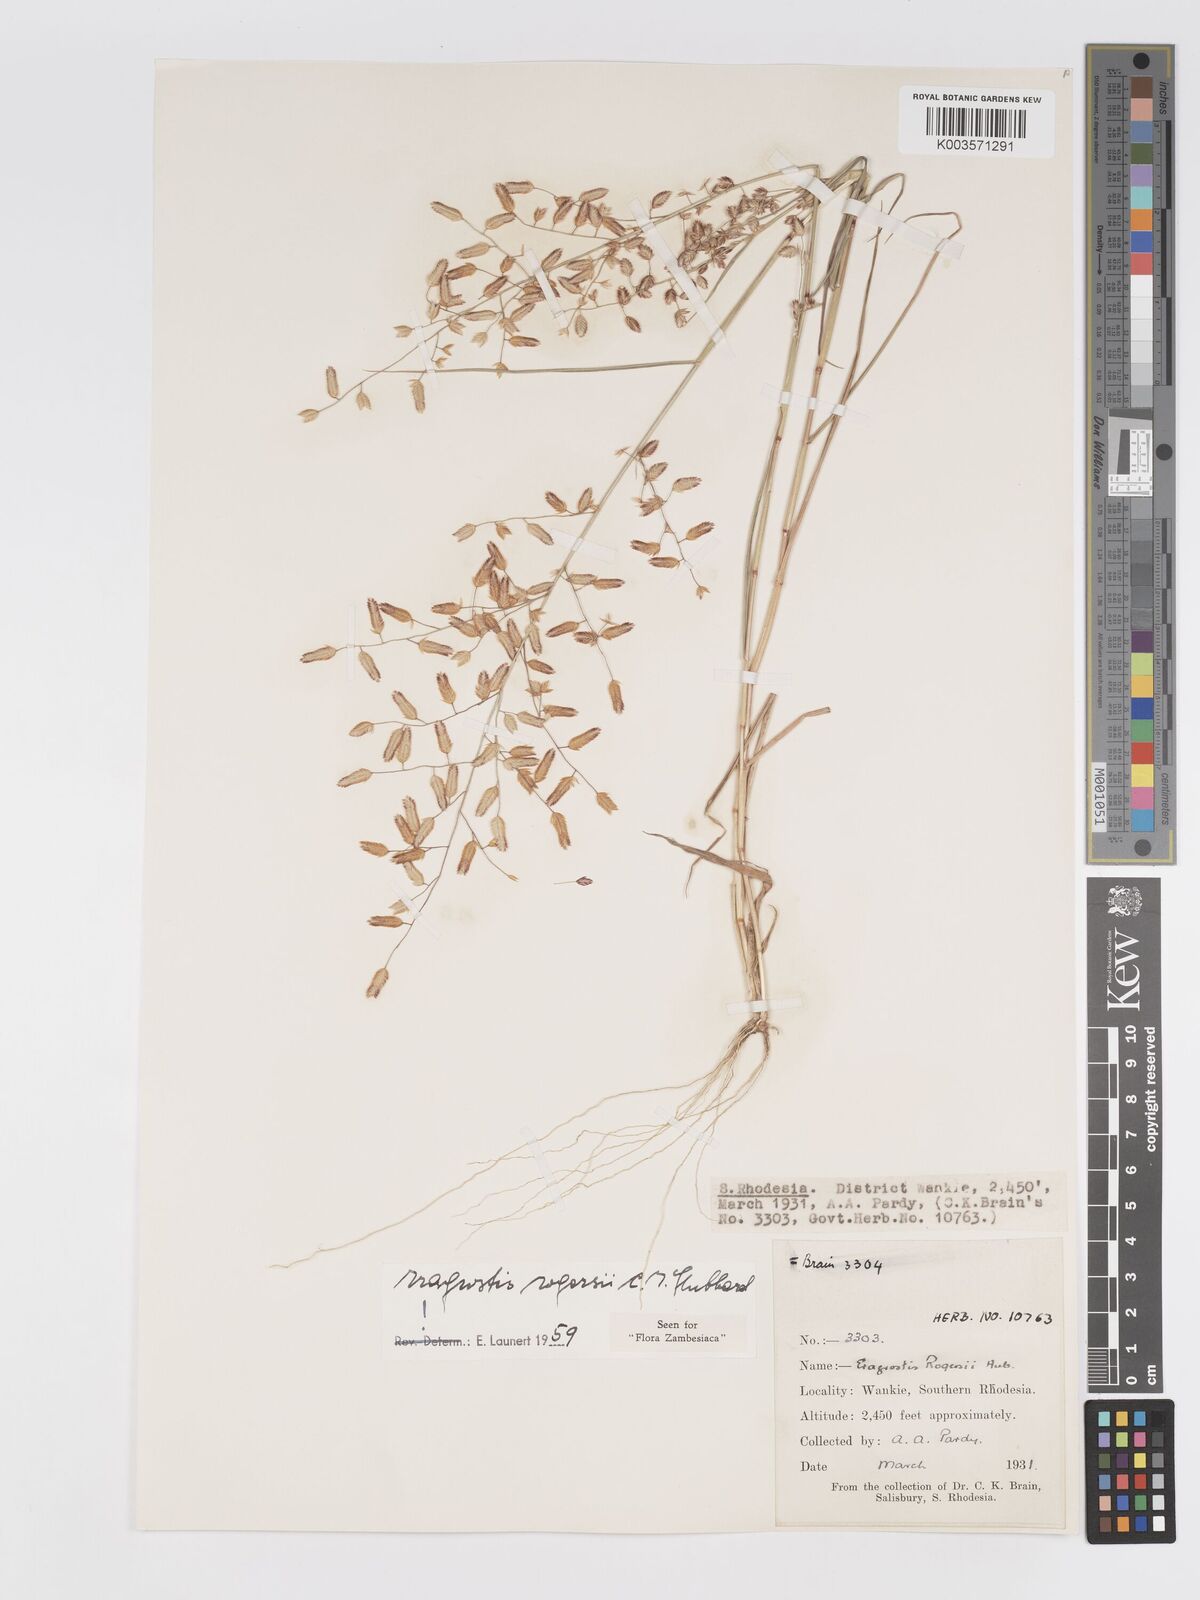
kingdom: Plantae
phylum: Tracheophyta
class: Liliopsida
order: Poales
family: Poaceae
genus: Eragrostis
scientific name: Eragrostis rogersii
